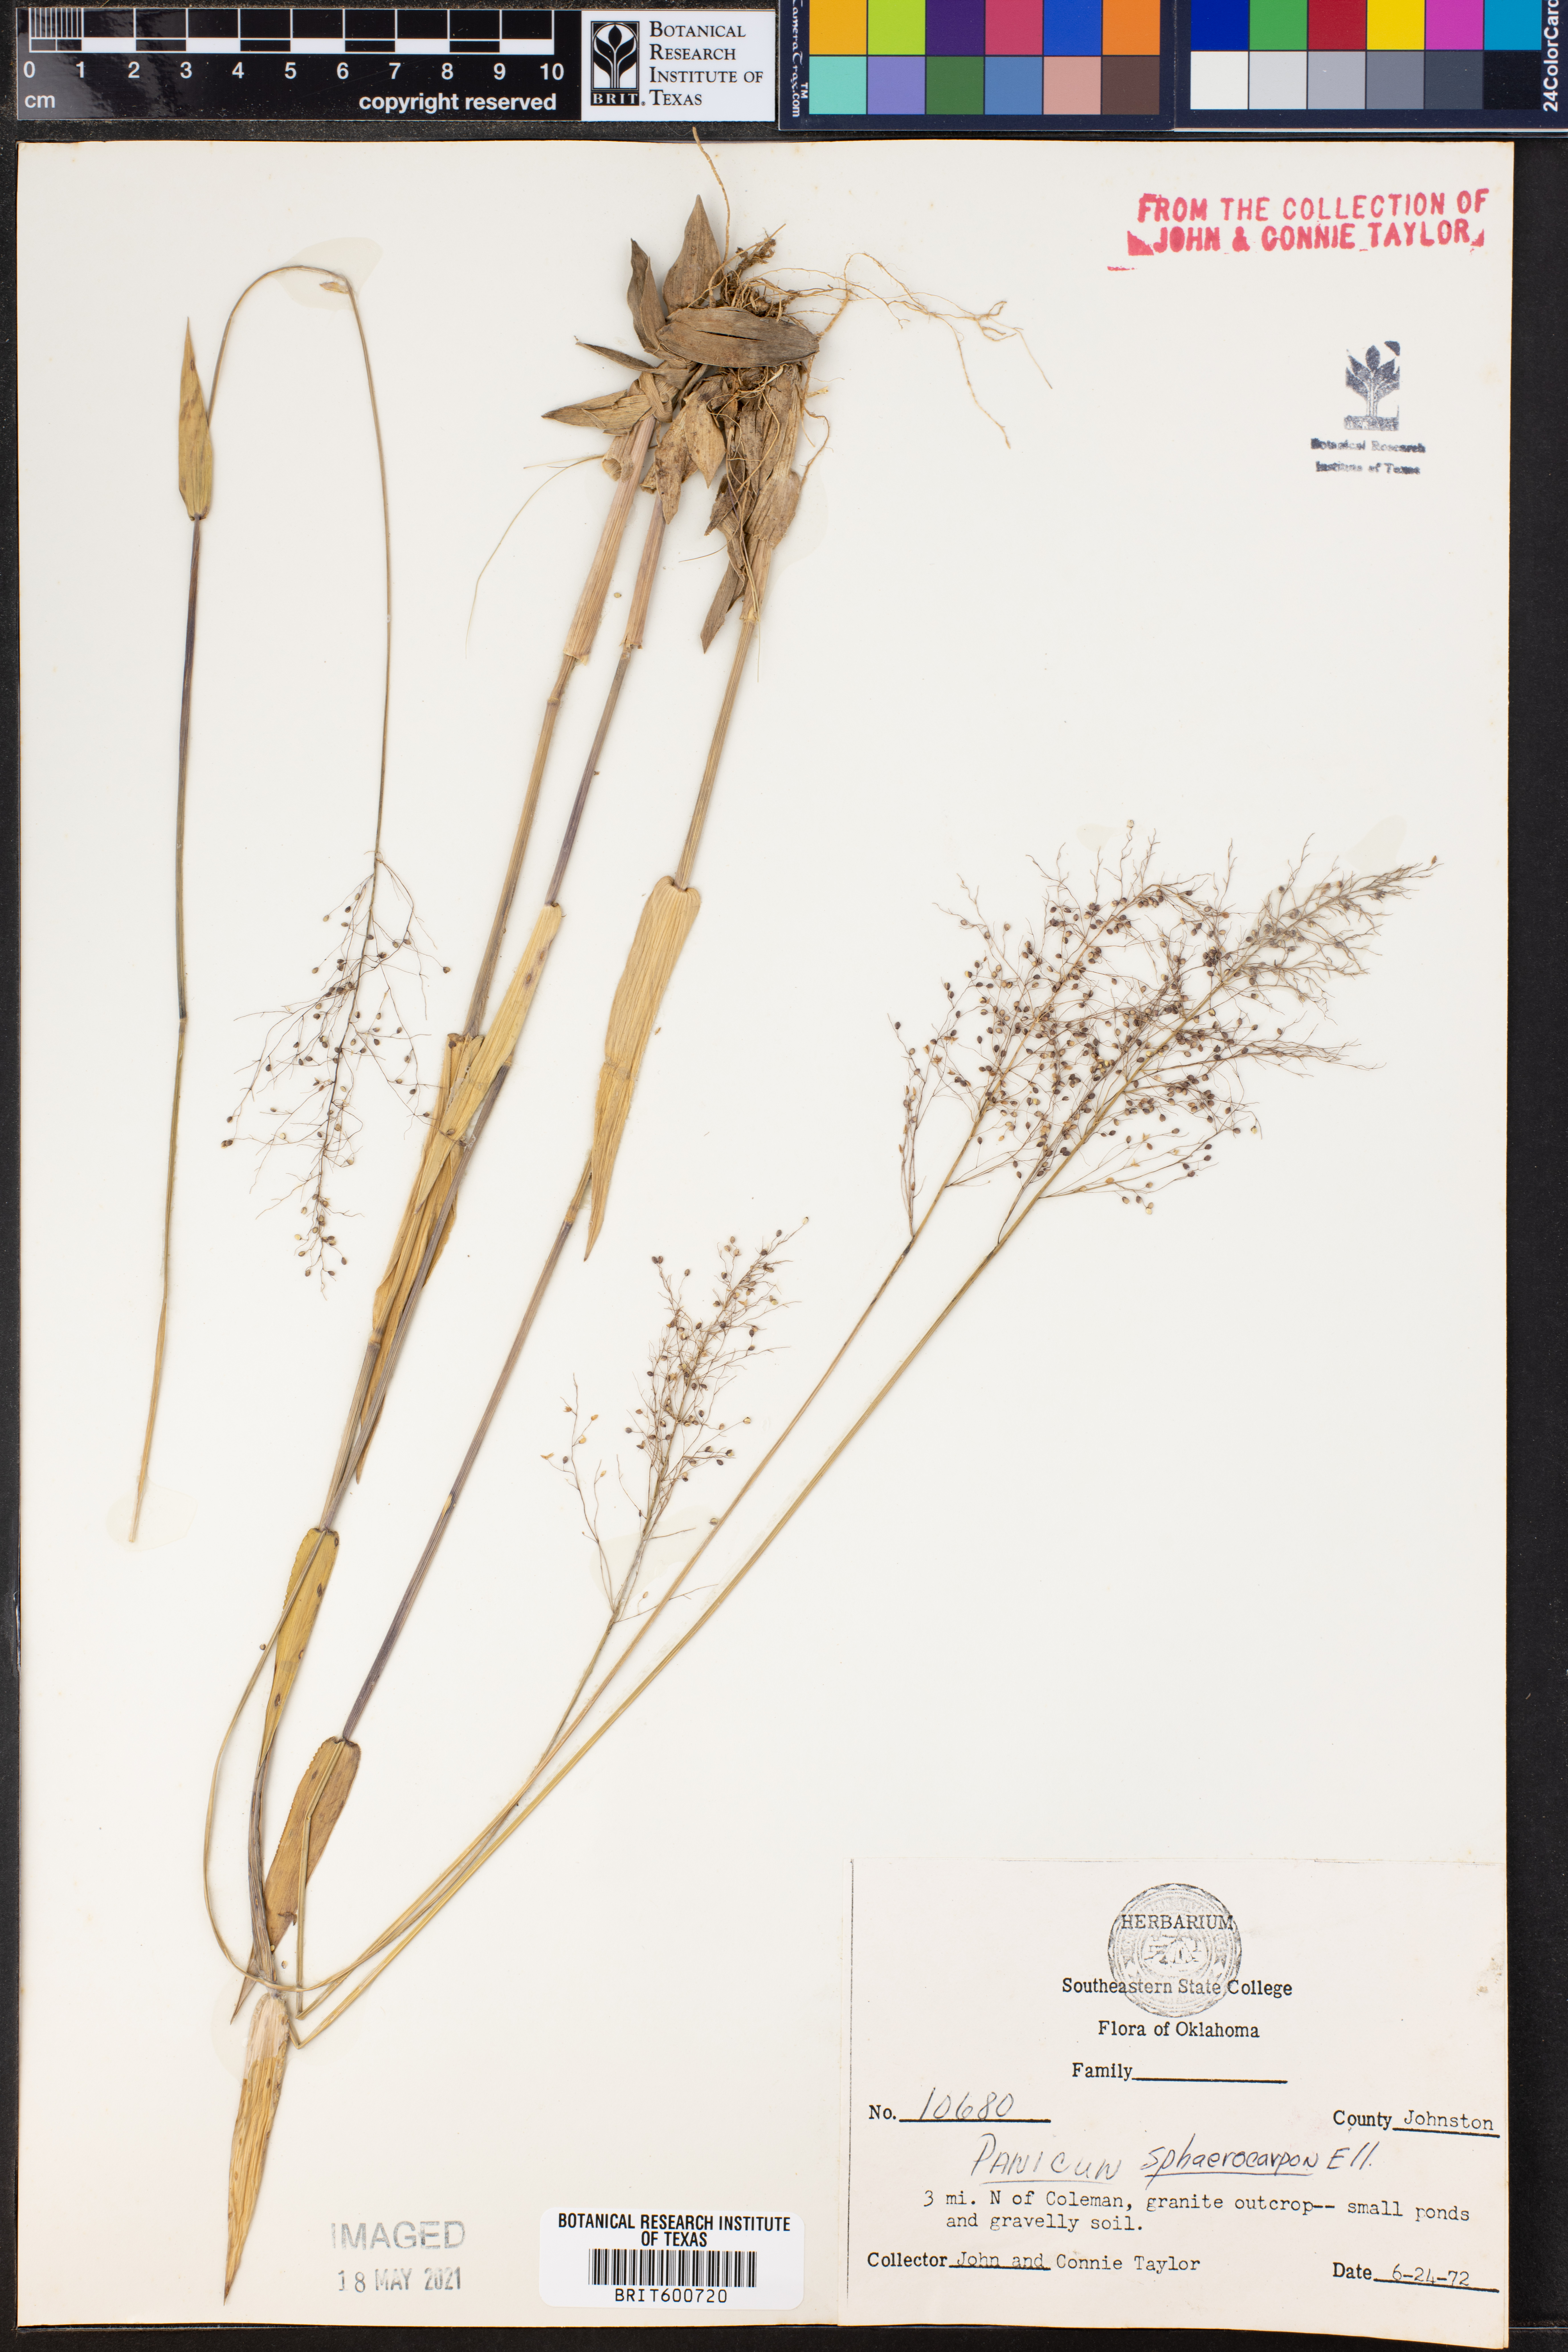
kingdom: Plantae
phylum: Tracheophyta
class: Liliopsida
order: Poales
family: Poaceae
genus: Dichanthelium
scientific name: Dichanthelium sphaerocarpon
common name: Round-fruited panicgrass
